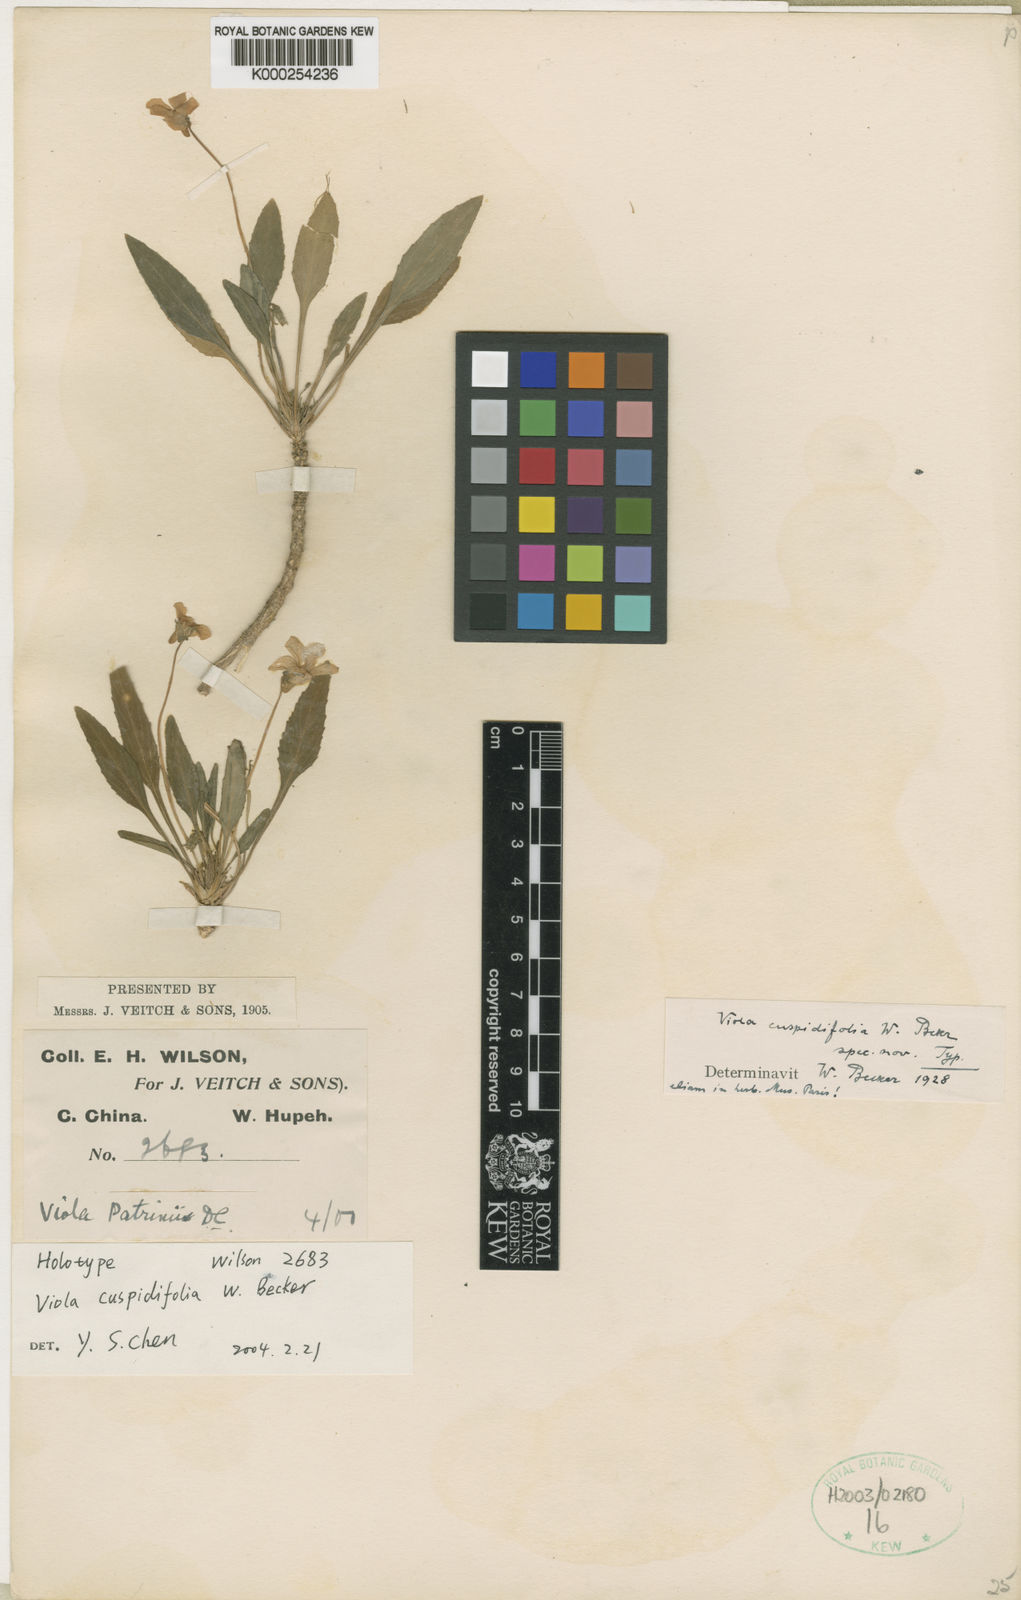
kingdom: Plantae
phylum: Tracheophyta
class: Magnoliopsida
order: Malpighiales
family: Violaceae
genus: Viola
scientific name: Viola cuspidifolia
